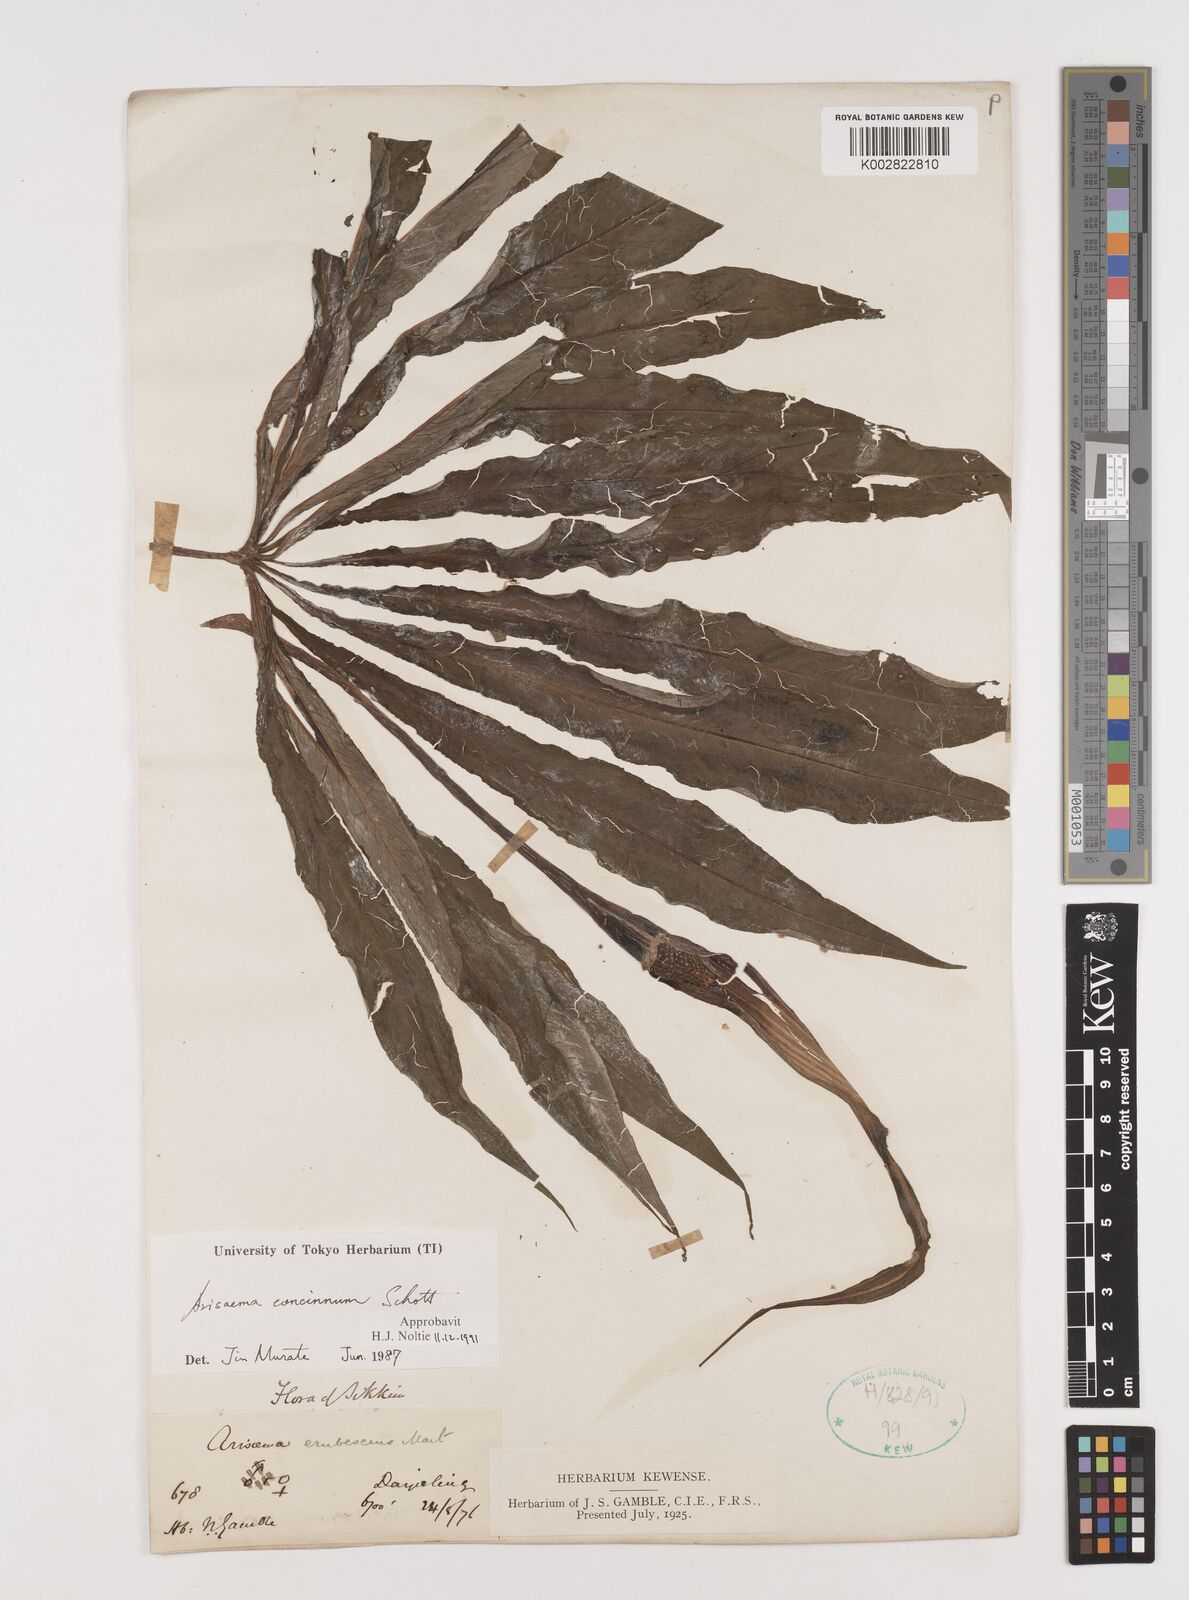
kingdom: Plantae
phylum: Tracheophyta
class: Liliopsida
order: Alismatales
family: Araceae
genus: Arisaema
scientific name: Arisaema concinnum
